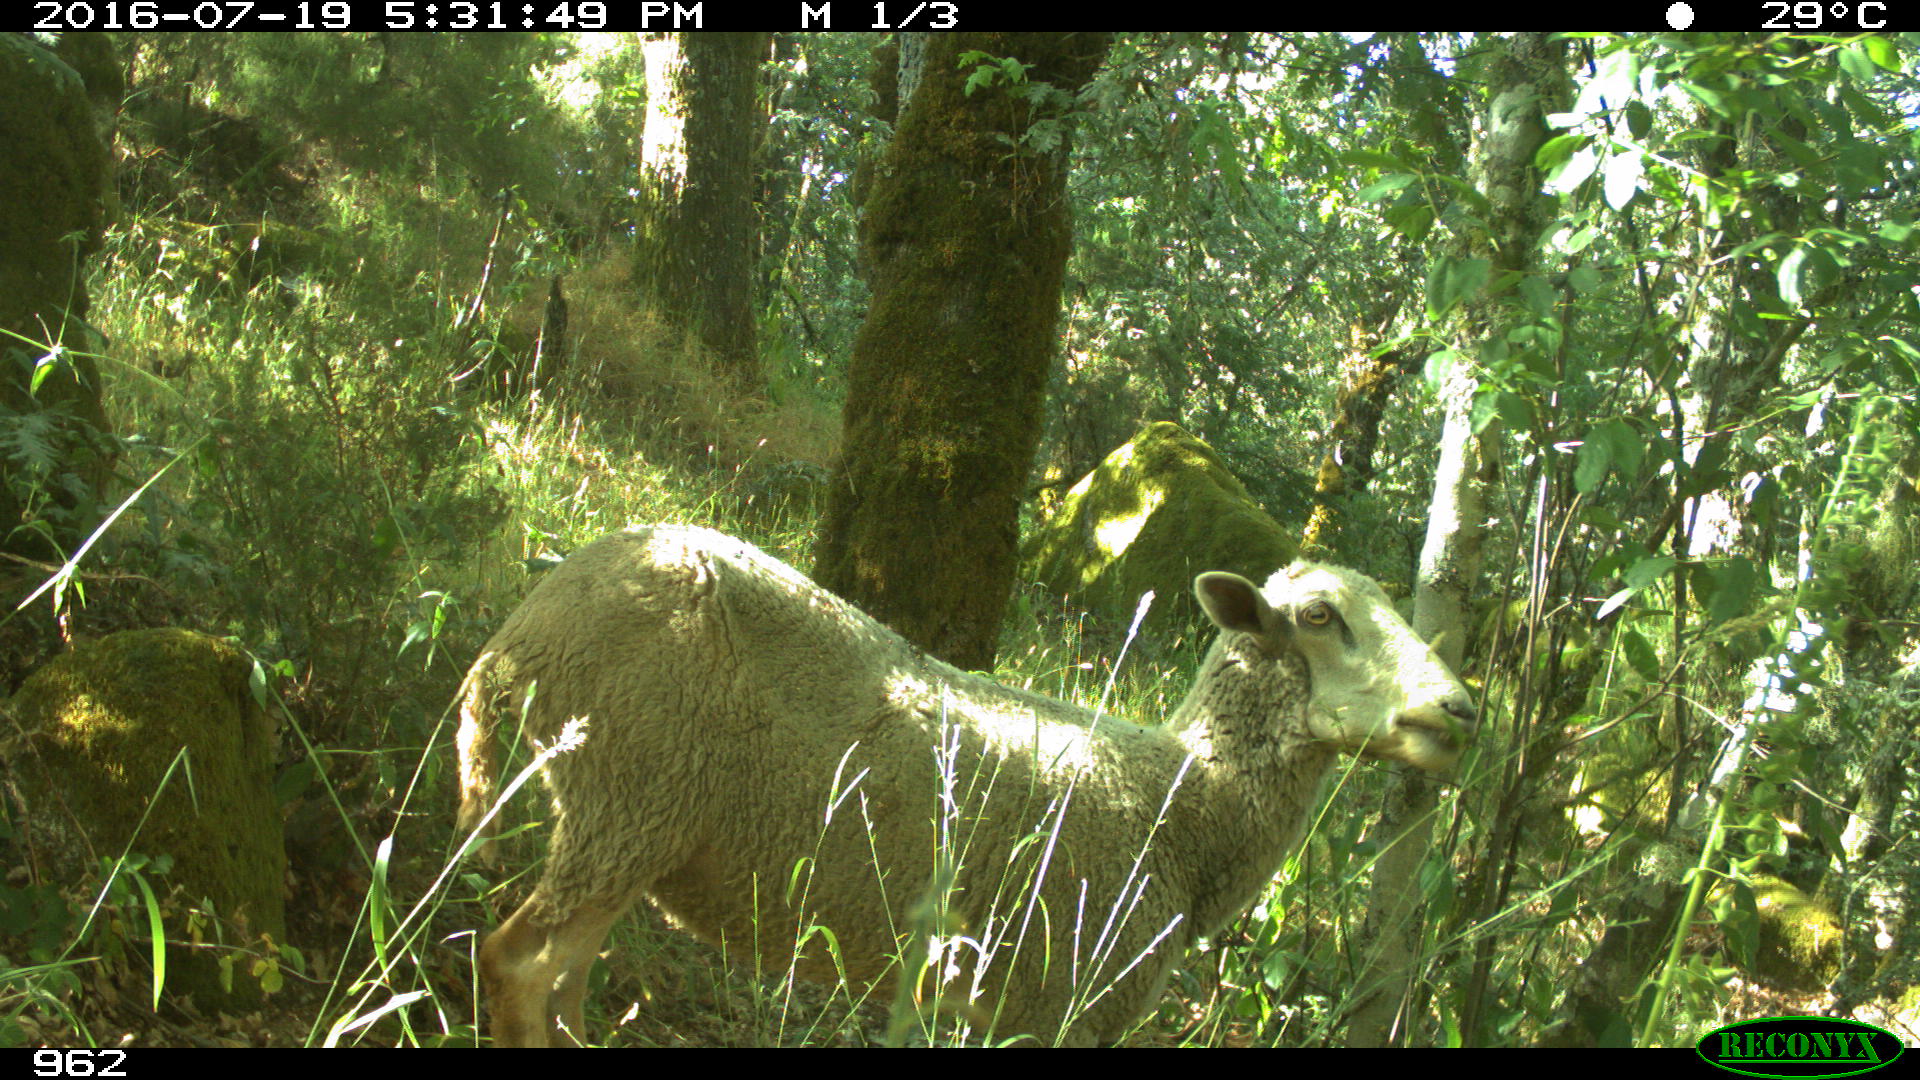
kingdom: Animalia
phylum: Chordata
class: Mammalia
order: Artiodactyla
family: Bovidae
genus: Ovis
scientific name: Ovis aries
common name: Domestic sheep
